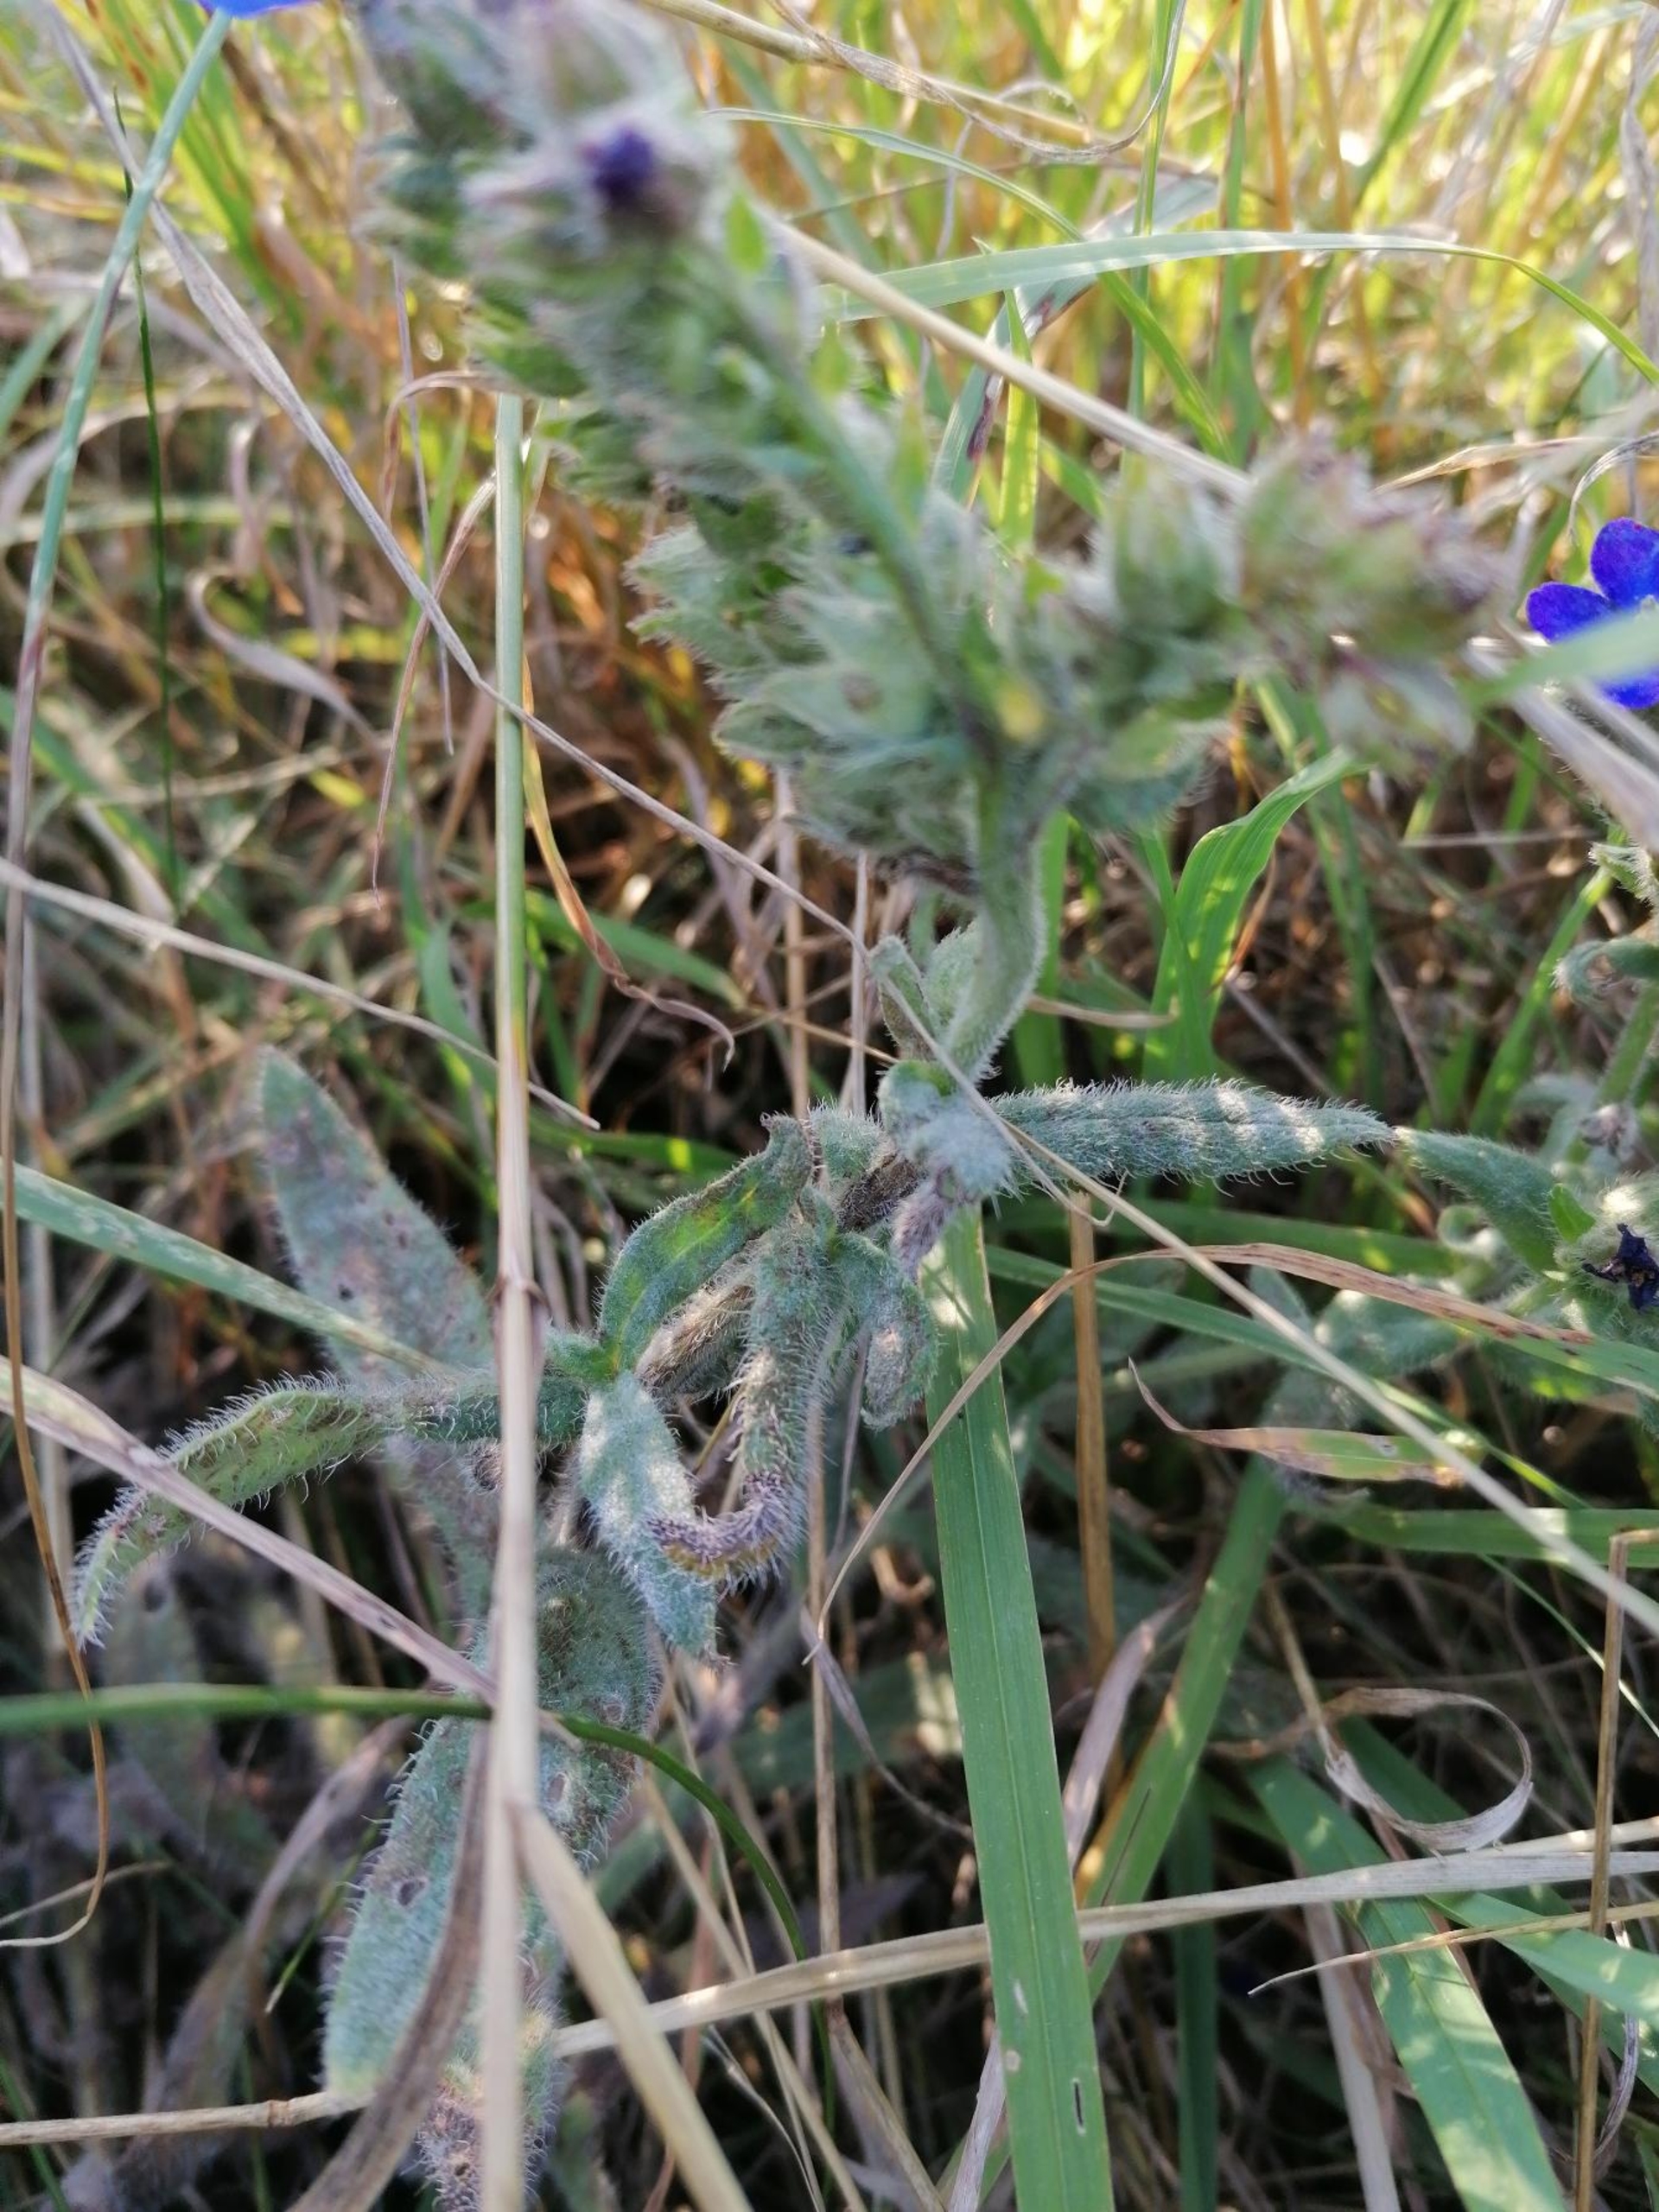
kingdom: Plantae
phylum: Tracheophyta
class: Magnoliopsida
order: Boraginales
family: Boraginaceae
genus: Anchusa
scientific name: Anchusa officinalis
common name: Læge-oksetunge
